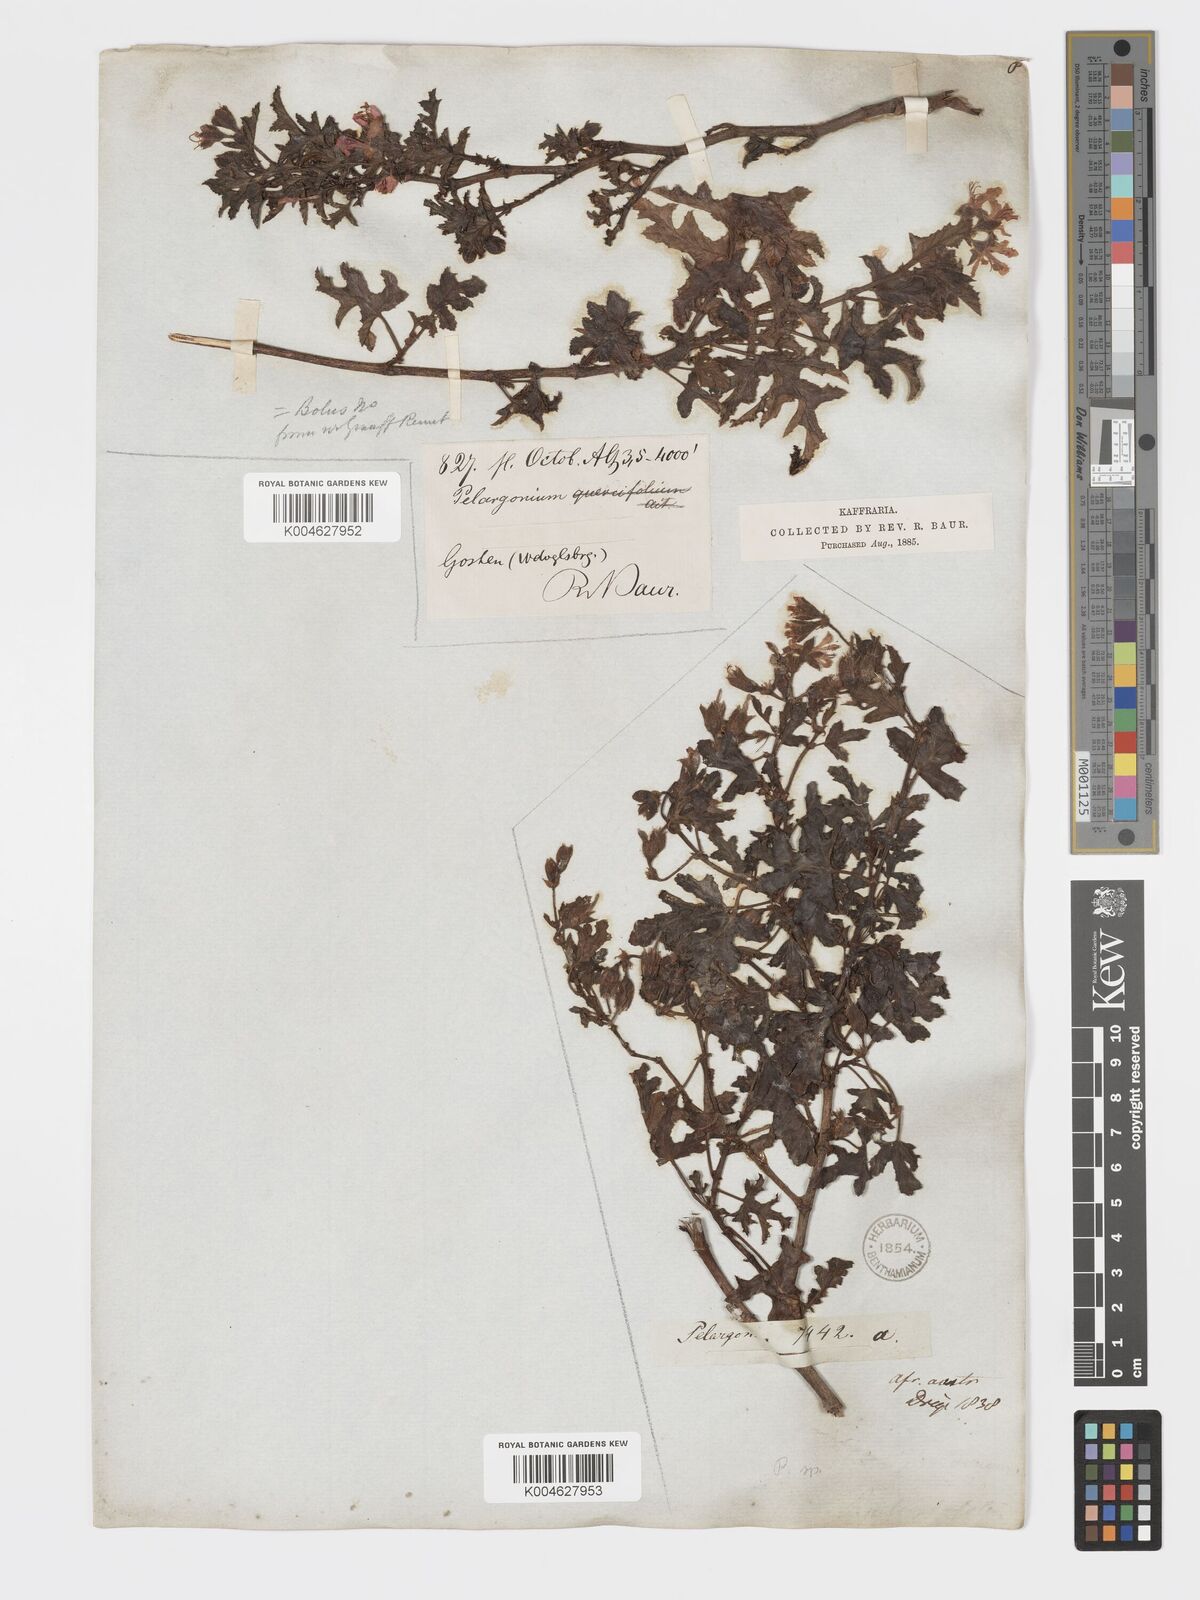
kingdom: Plantae
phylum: Tracheophyta
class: Magnoliopsida
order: Geraniales
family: Geraniaceae
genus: Pelargonium
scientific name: Pelargonium quercifolium
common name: Oakleaf geranium
